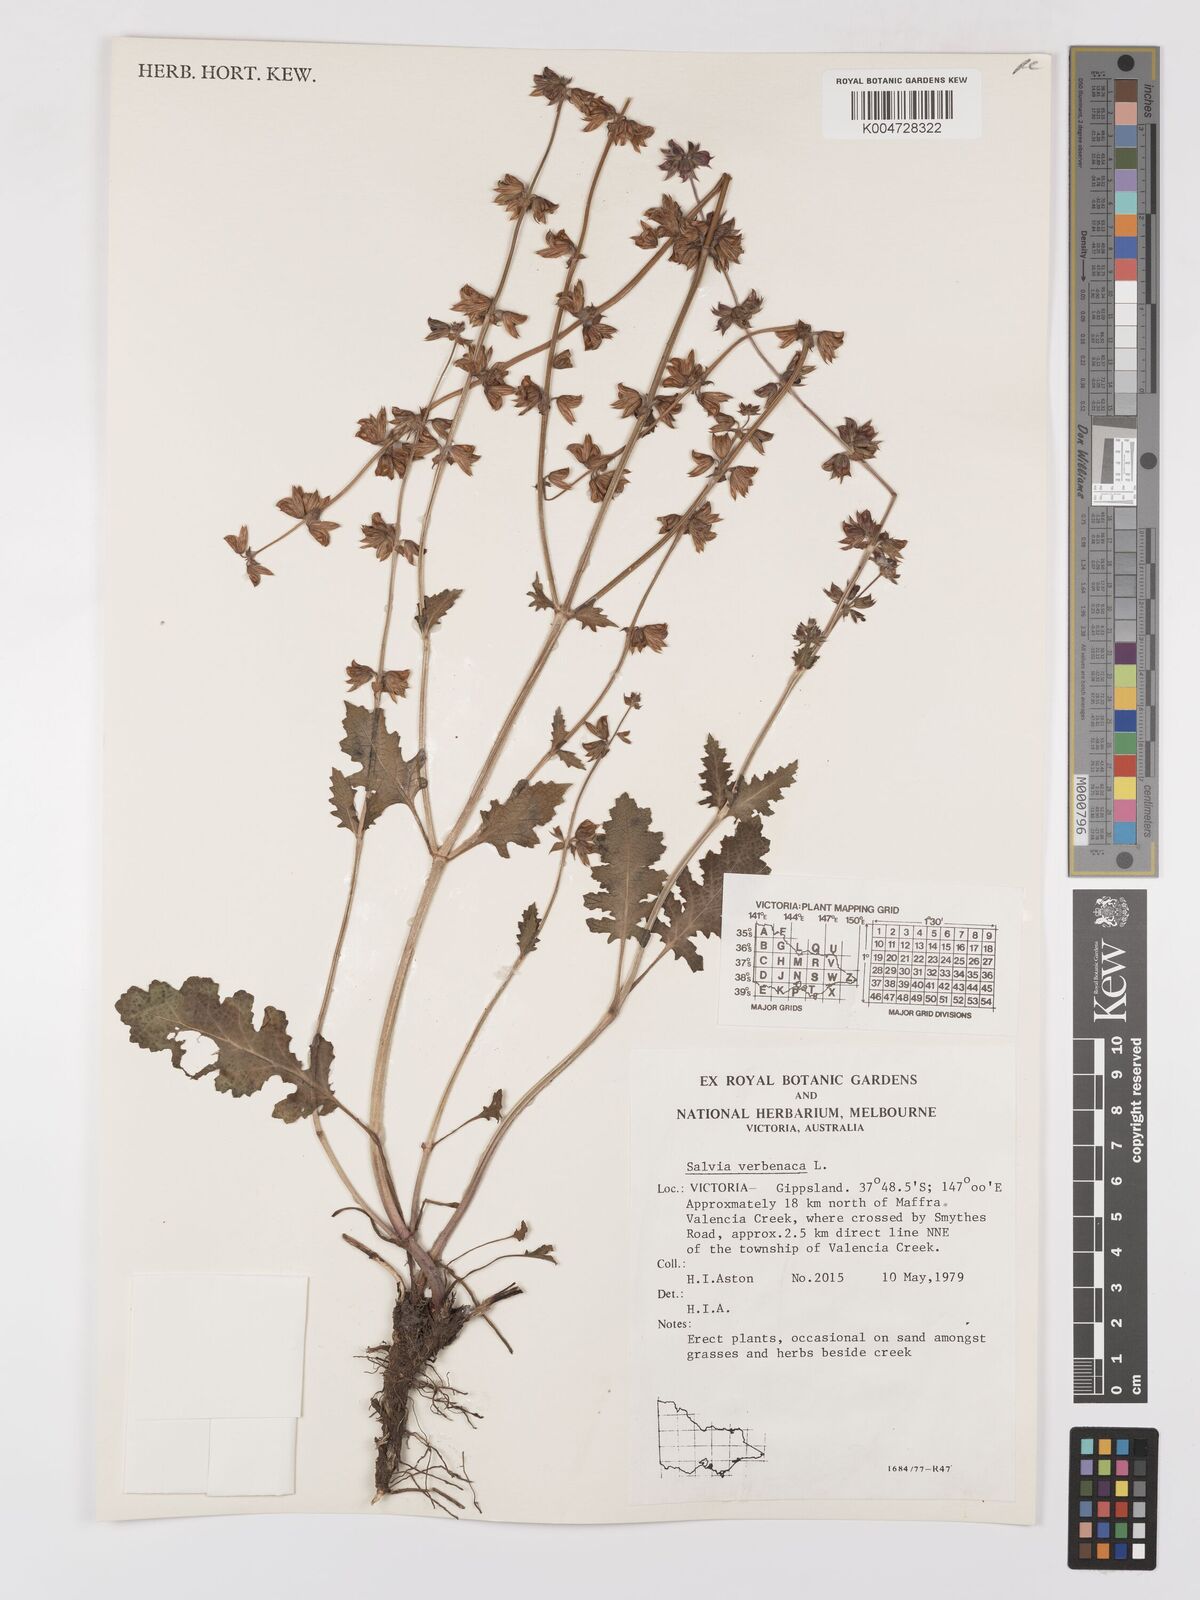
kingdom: Plantae
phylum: Tracheophyta
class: Magnoliopsida
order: Lamiales
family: Lamiaceae
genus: Salvia
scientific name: Salvia verbenaca
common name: Wild clary
